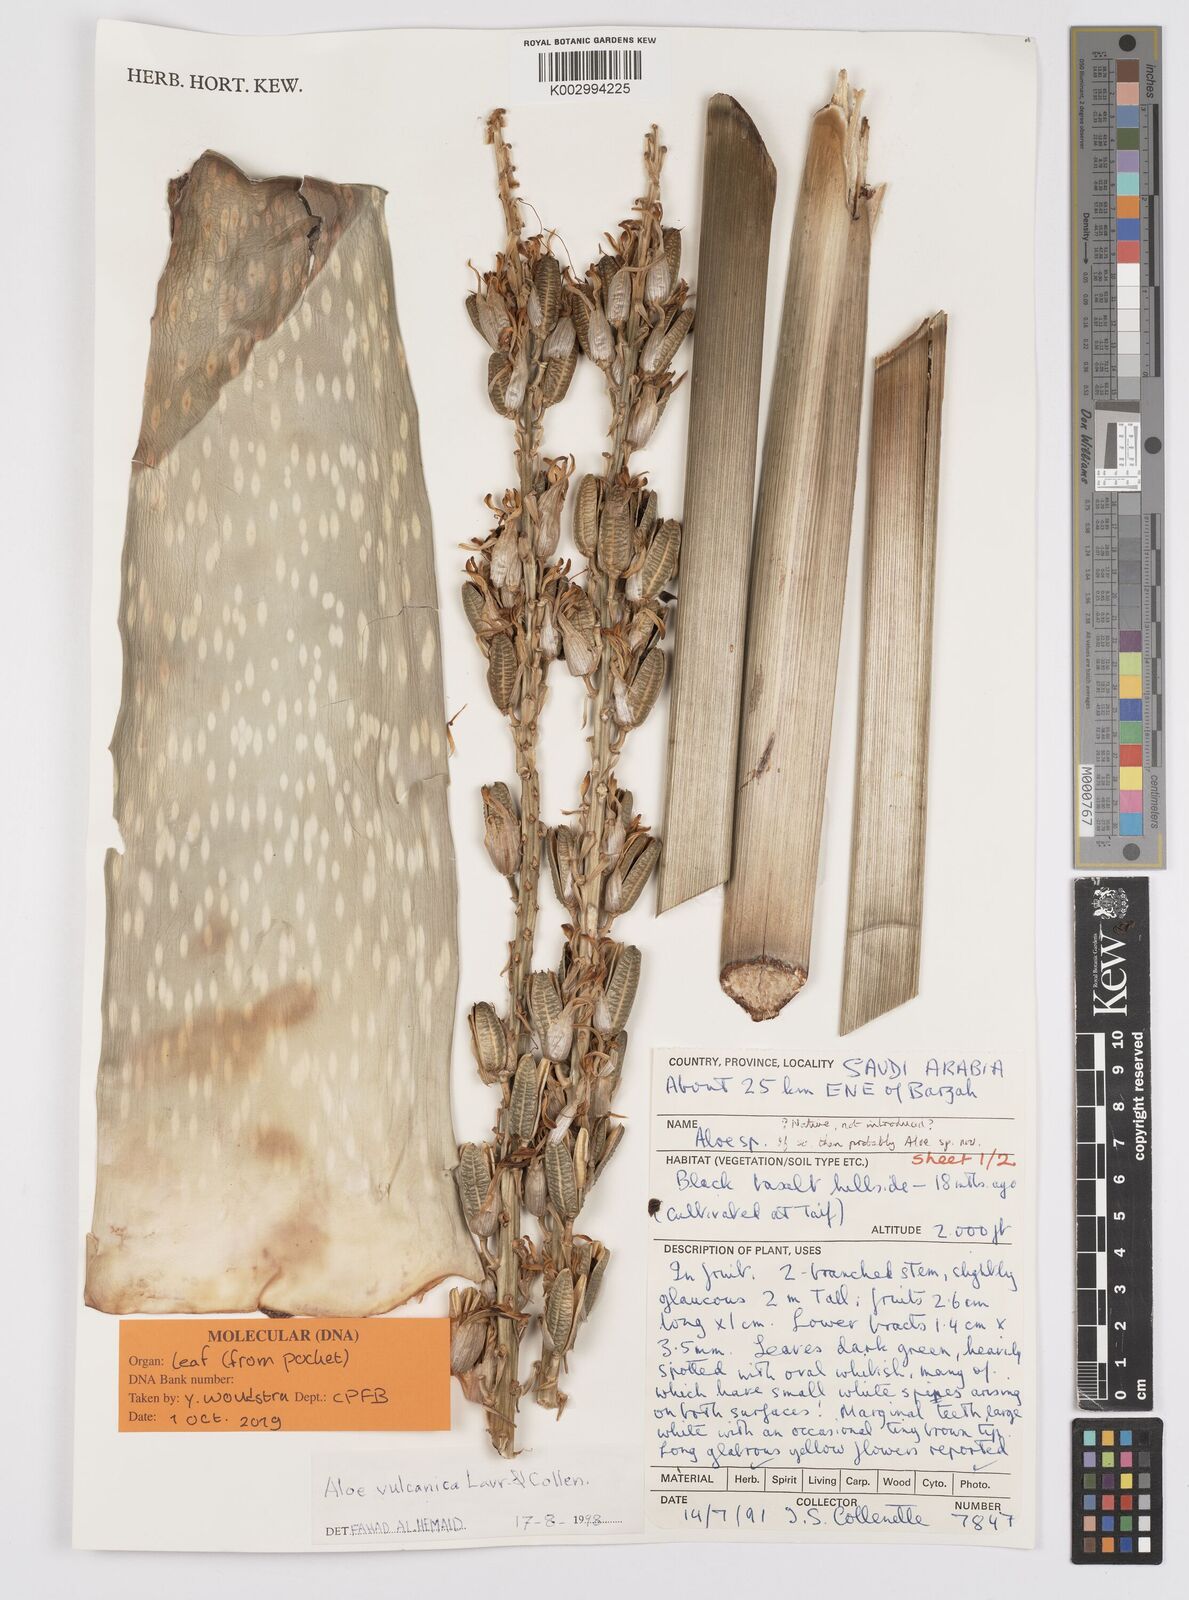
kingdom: Plantae
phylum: Tracheophyta
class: Liliopsida
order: Asparagales
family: Asphodelaceae
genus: Aloe
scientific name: Aloe
